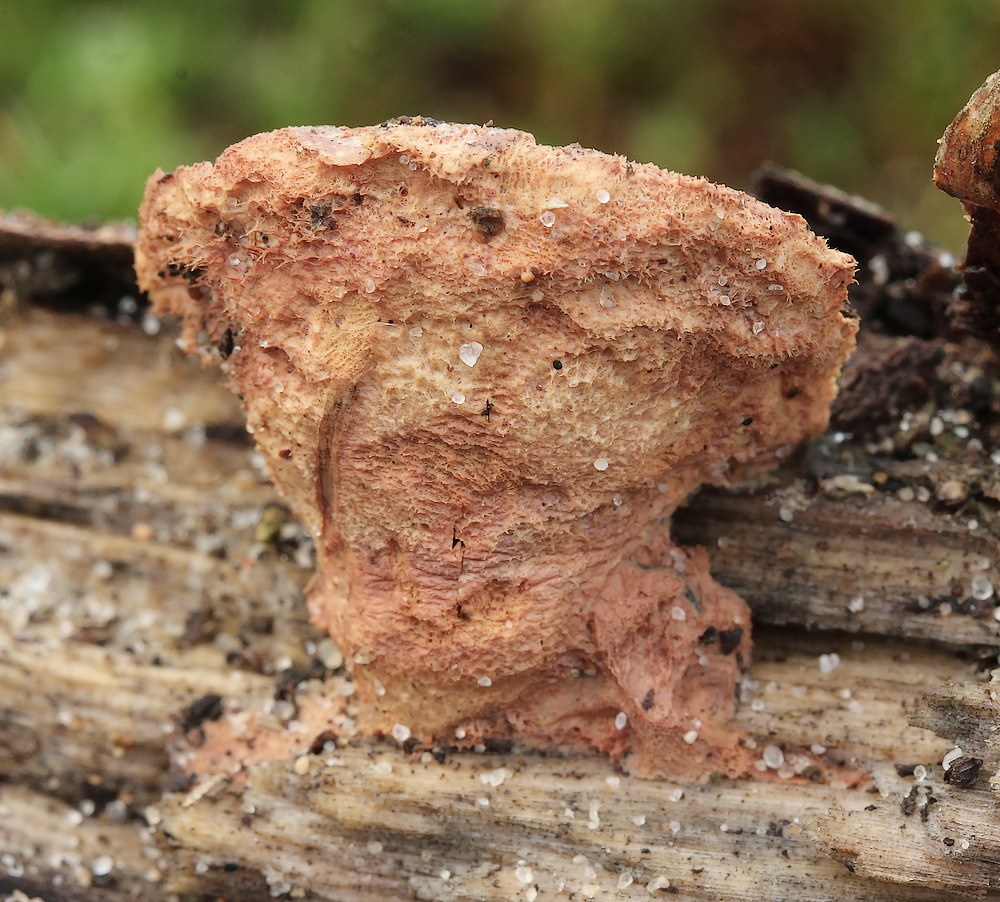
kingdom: Fungi
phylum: Basidiomycota
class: Agaricomycetes
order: Polyporales
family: Phanerochaetaceae
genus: Hapalopilus
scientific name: Hapalopilus rutilans
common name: rødlig okkerporesvamp
